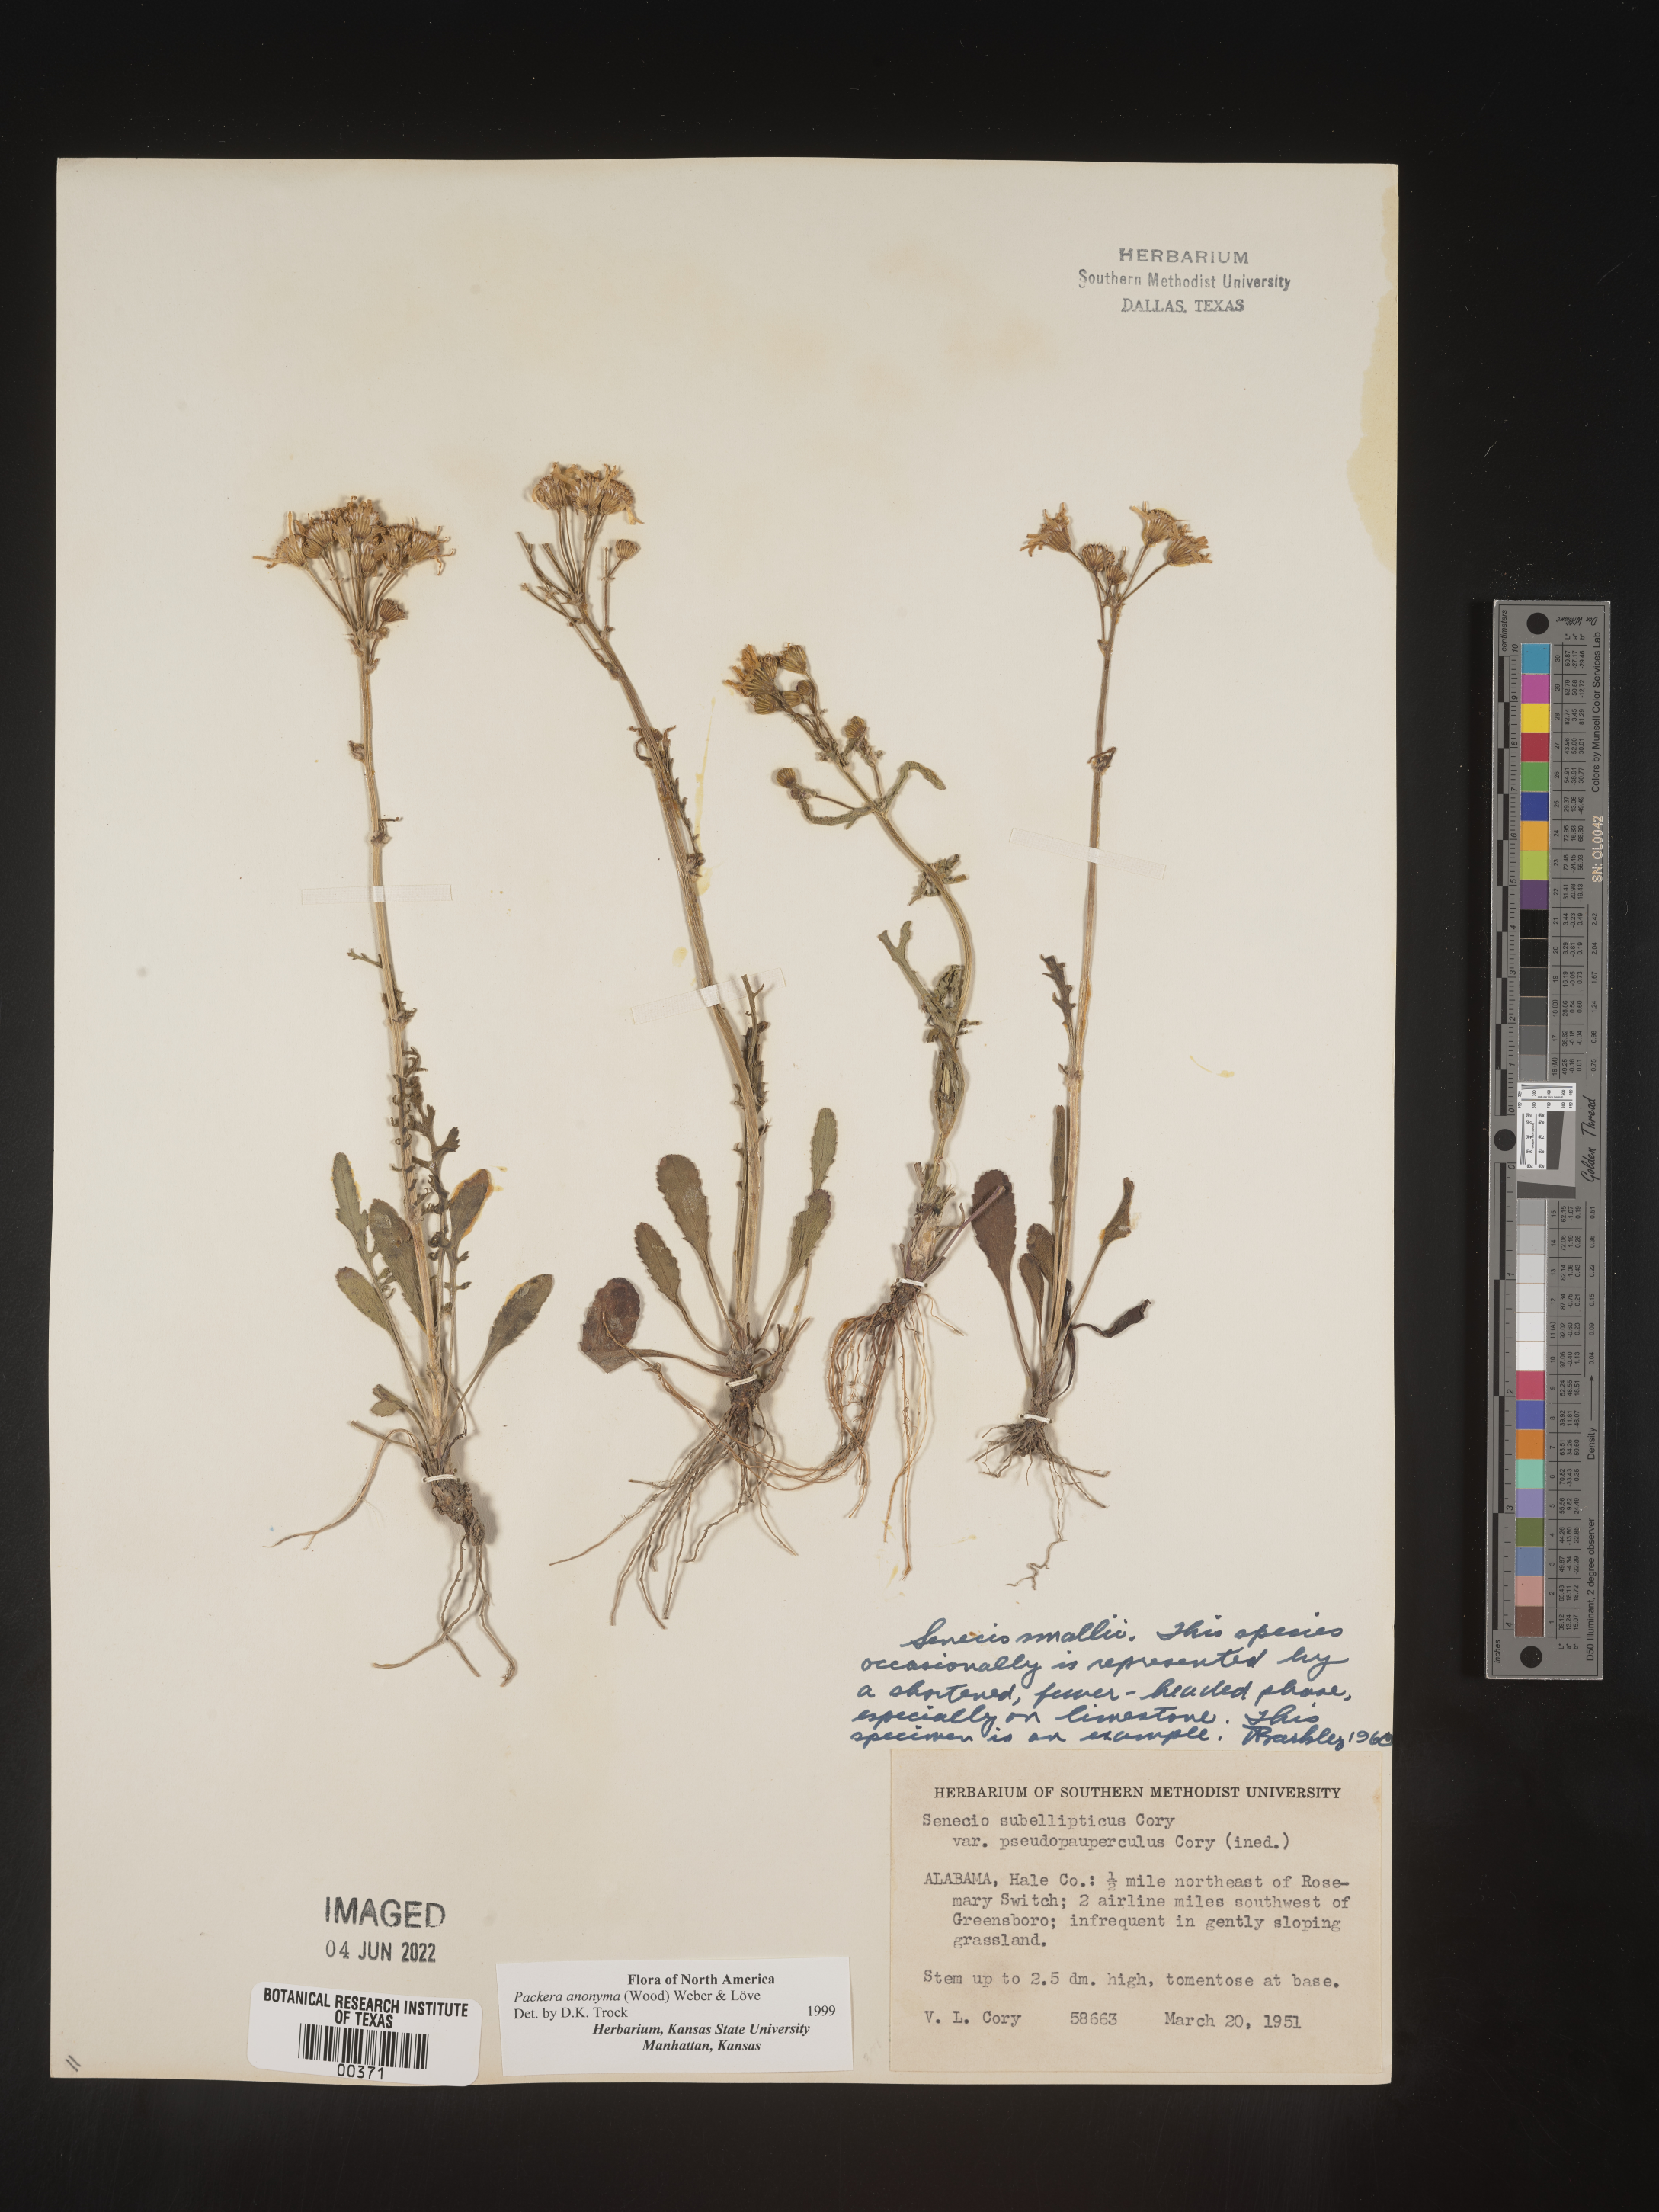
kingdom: Plantae
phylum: Tracheophyta
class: Magnoliopsida
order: Asterales
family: Asteraceae
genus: Packera
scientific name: Packera anonyma
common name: Small ragwort
